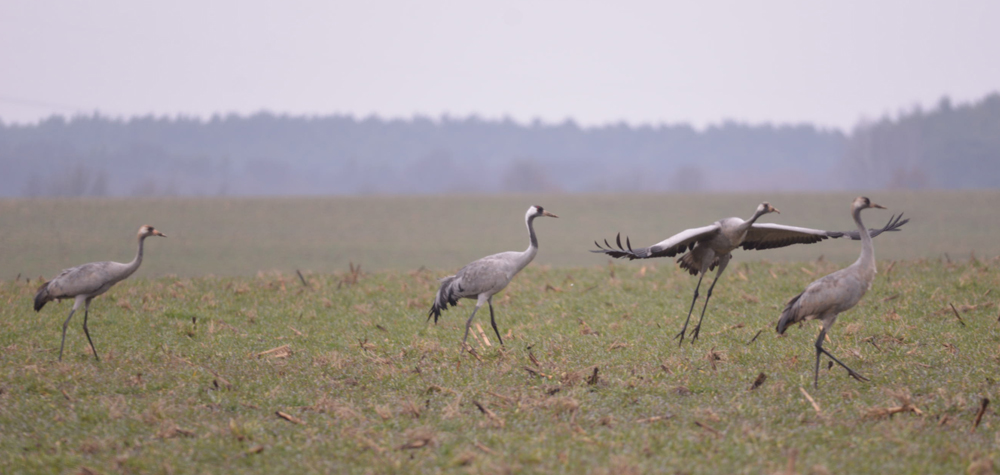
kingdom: Animalia
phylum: Chordata
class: Aves
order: Gruiformes
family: Gruidae
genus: Grus
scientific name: Grus grus
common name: Common crane
